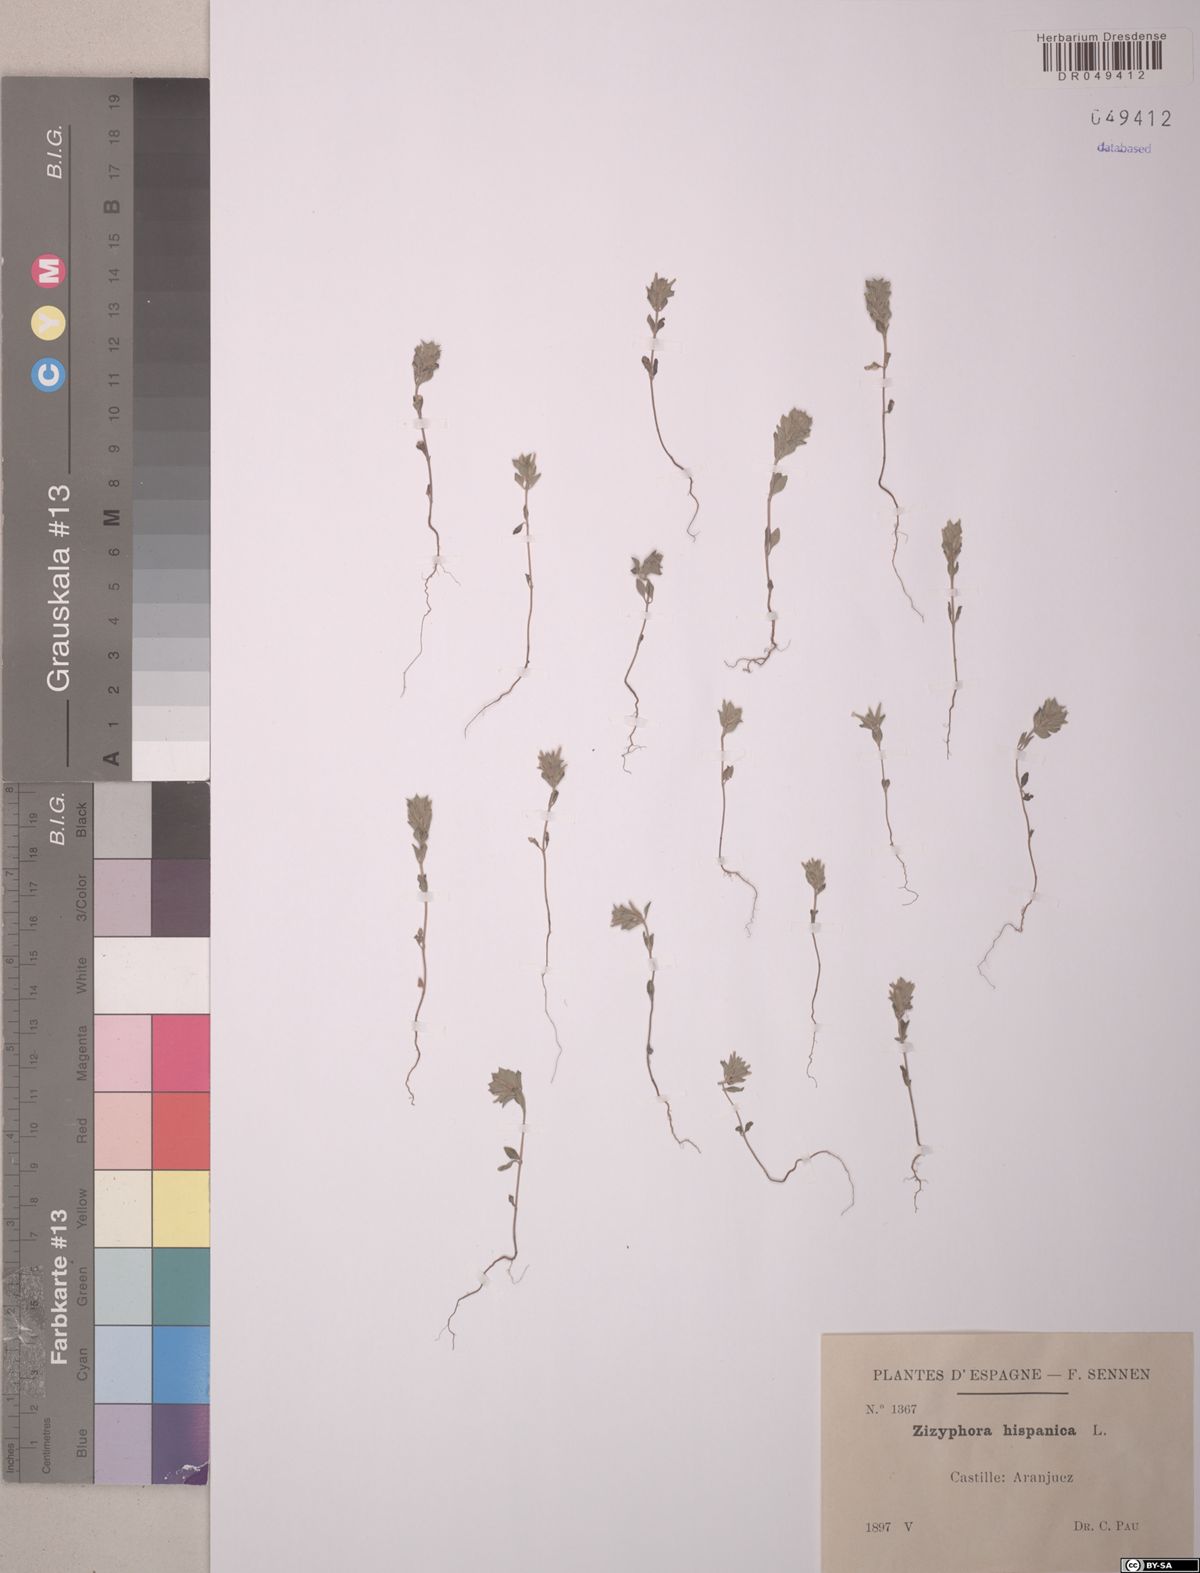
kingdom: Plantae
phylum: Tracheophyta
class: Magnoliopsida
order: Lamiales
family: Lamiaceae
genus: Ziziphora
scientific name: Ziziphora hispanica
